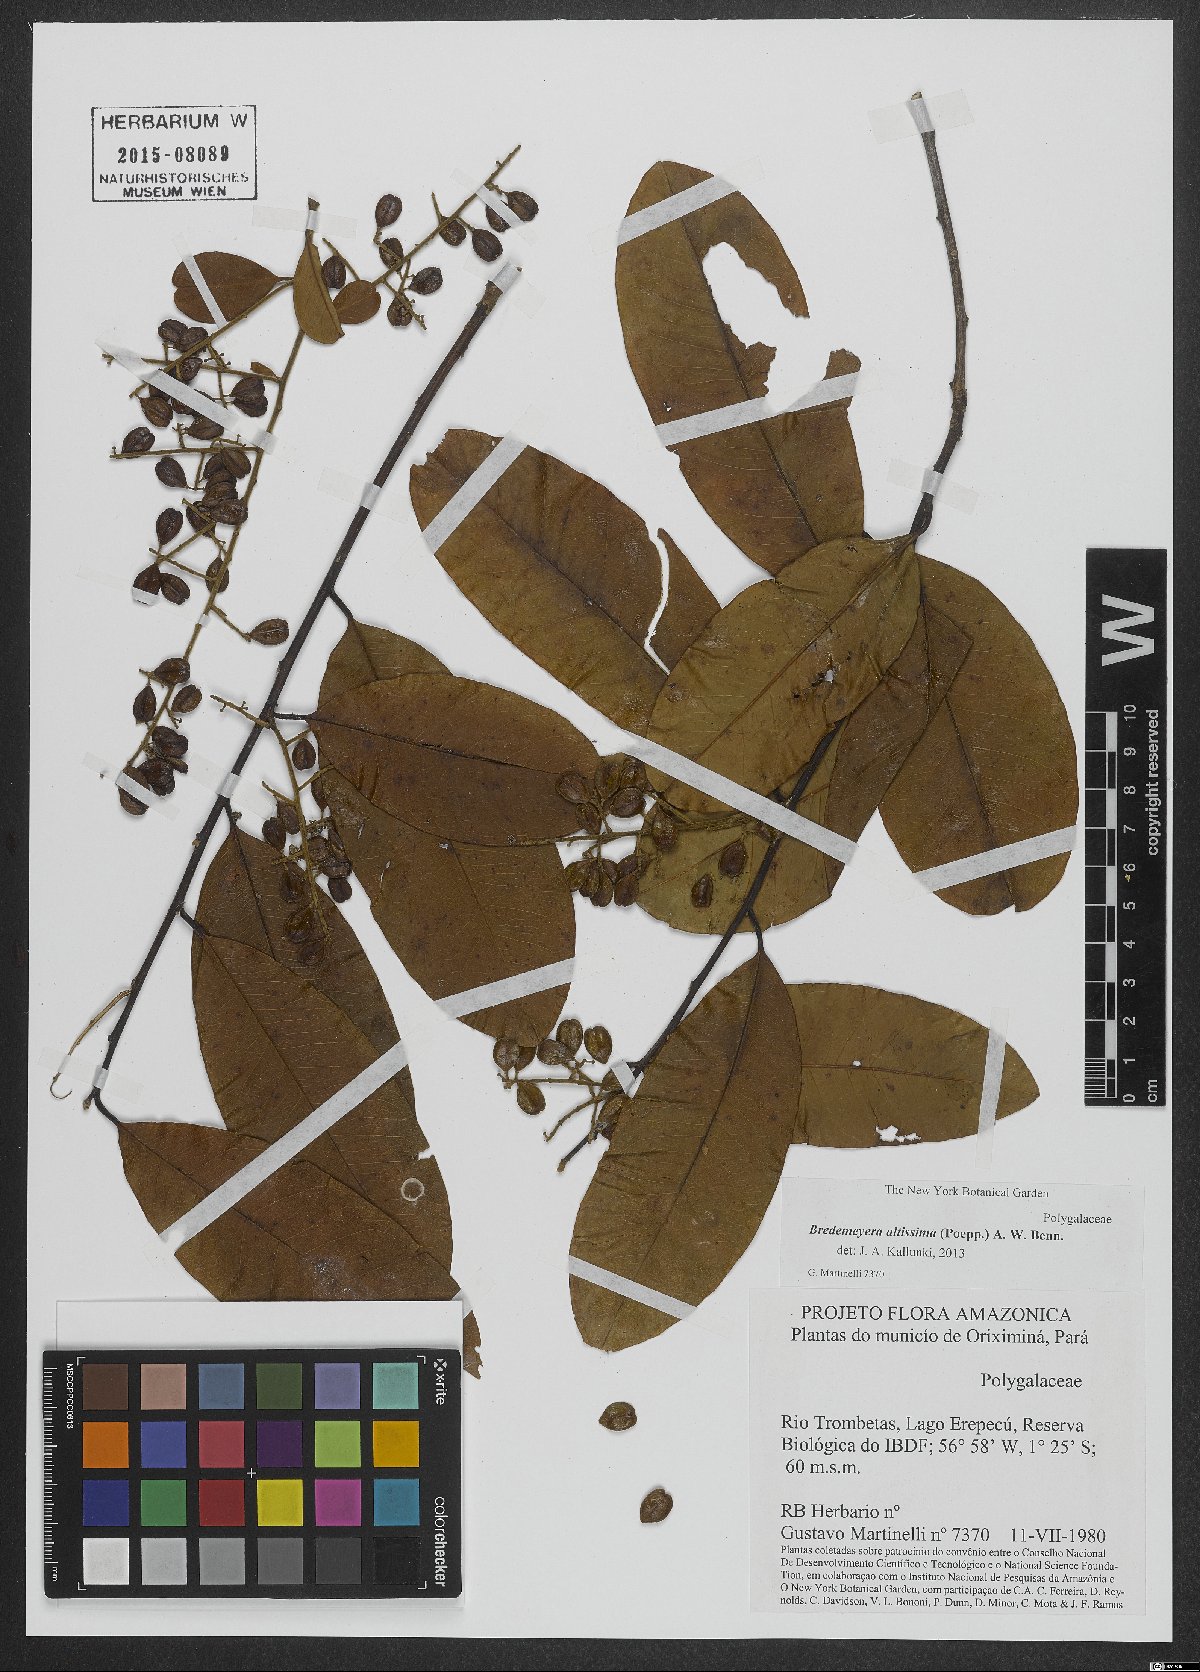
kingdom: Plantae
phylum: Tracheophyta
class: Magnoliopsida
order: Fabales
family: Polygalaceae
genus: Bredemeyera
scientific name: Bredemeyera divaricata
